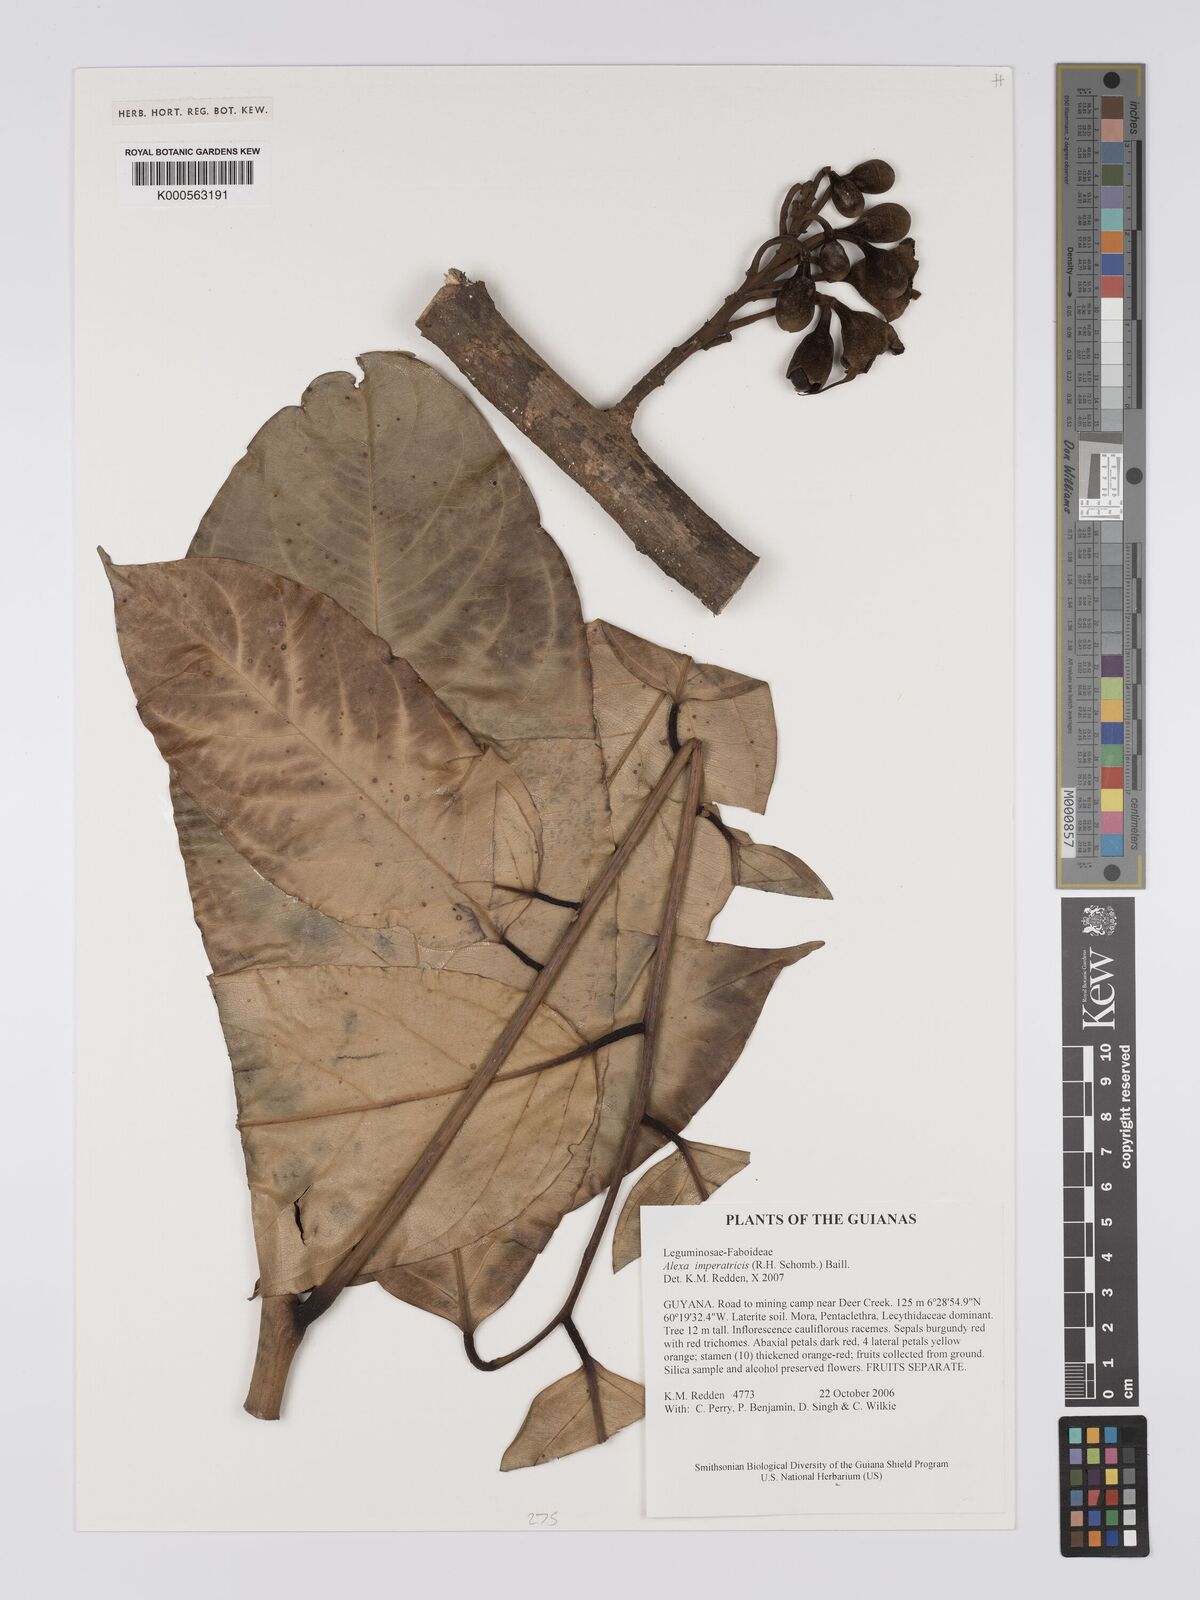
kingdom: Plantae
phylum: Tracheophyta
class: Magnoliopsida
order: Fabales
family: Fabaceae
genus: Alexa
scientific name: Alexa imperatricis
